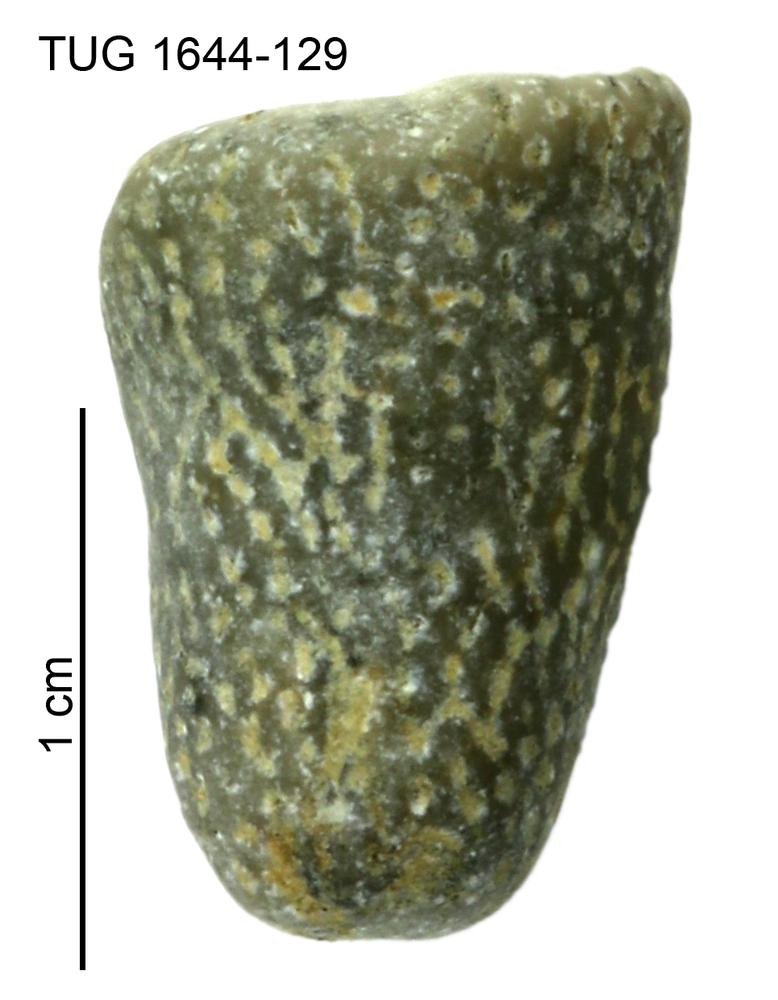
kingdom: Animalia
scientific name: Animalia
